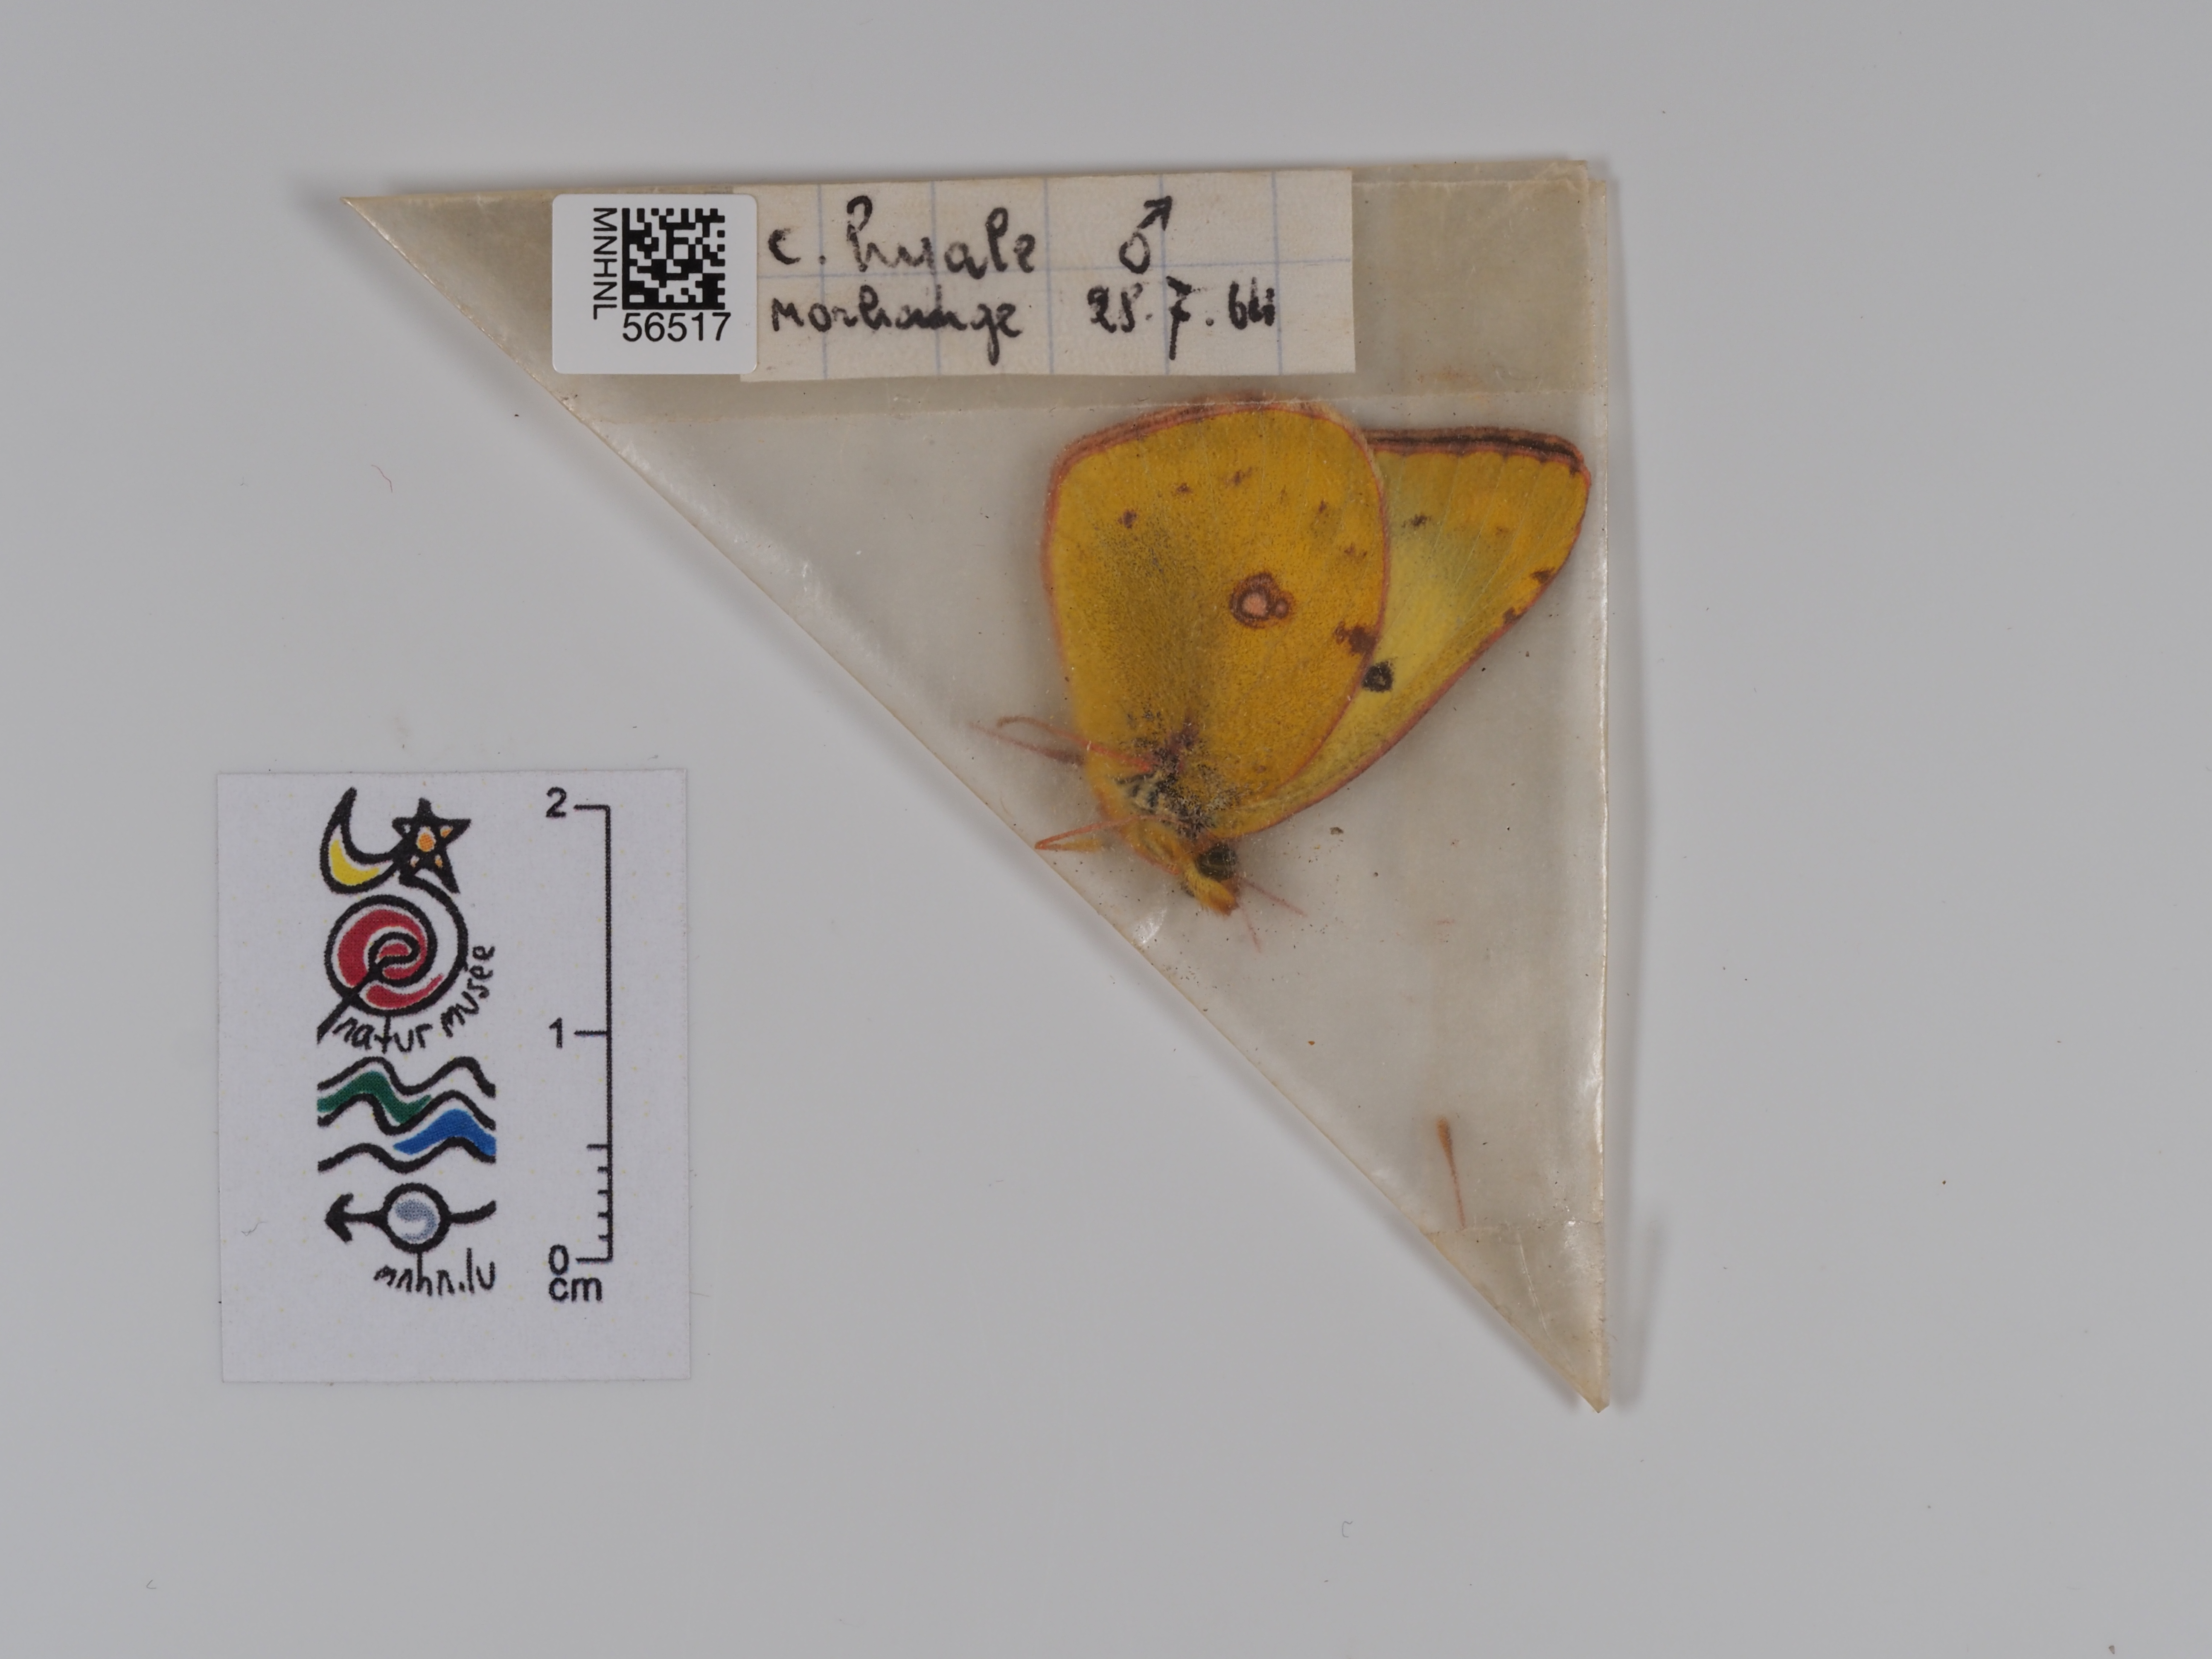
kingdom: Animalia
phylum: Arthropoda
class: Insecta
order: Lepidoptera
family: Pieridae
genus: Colias
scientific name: Colias hyale
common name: Pale clouded yellow
